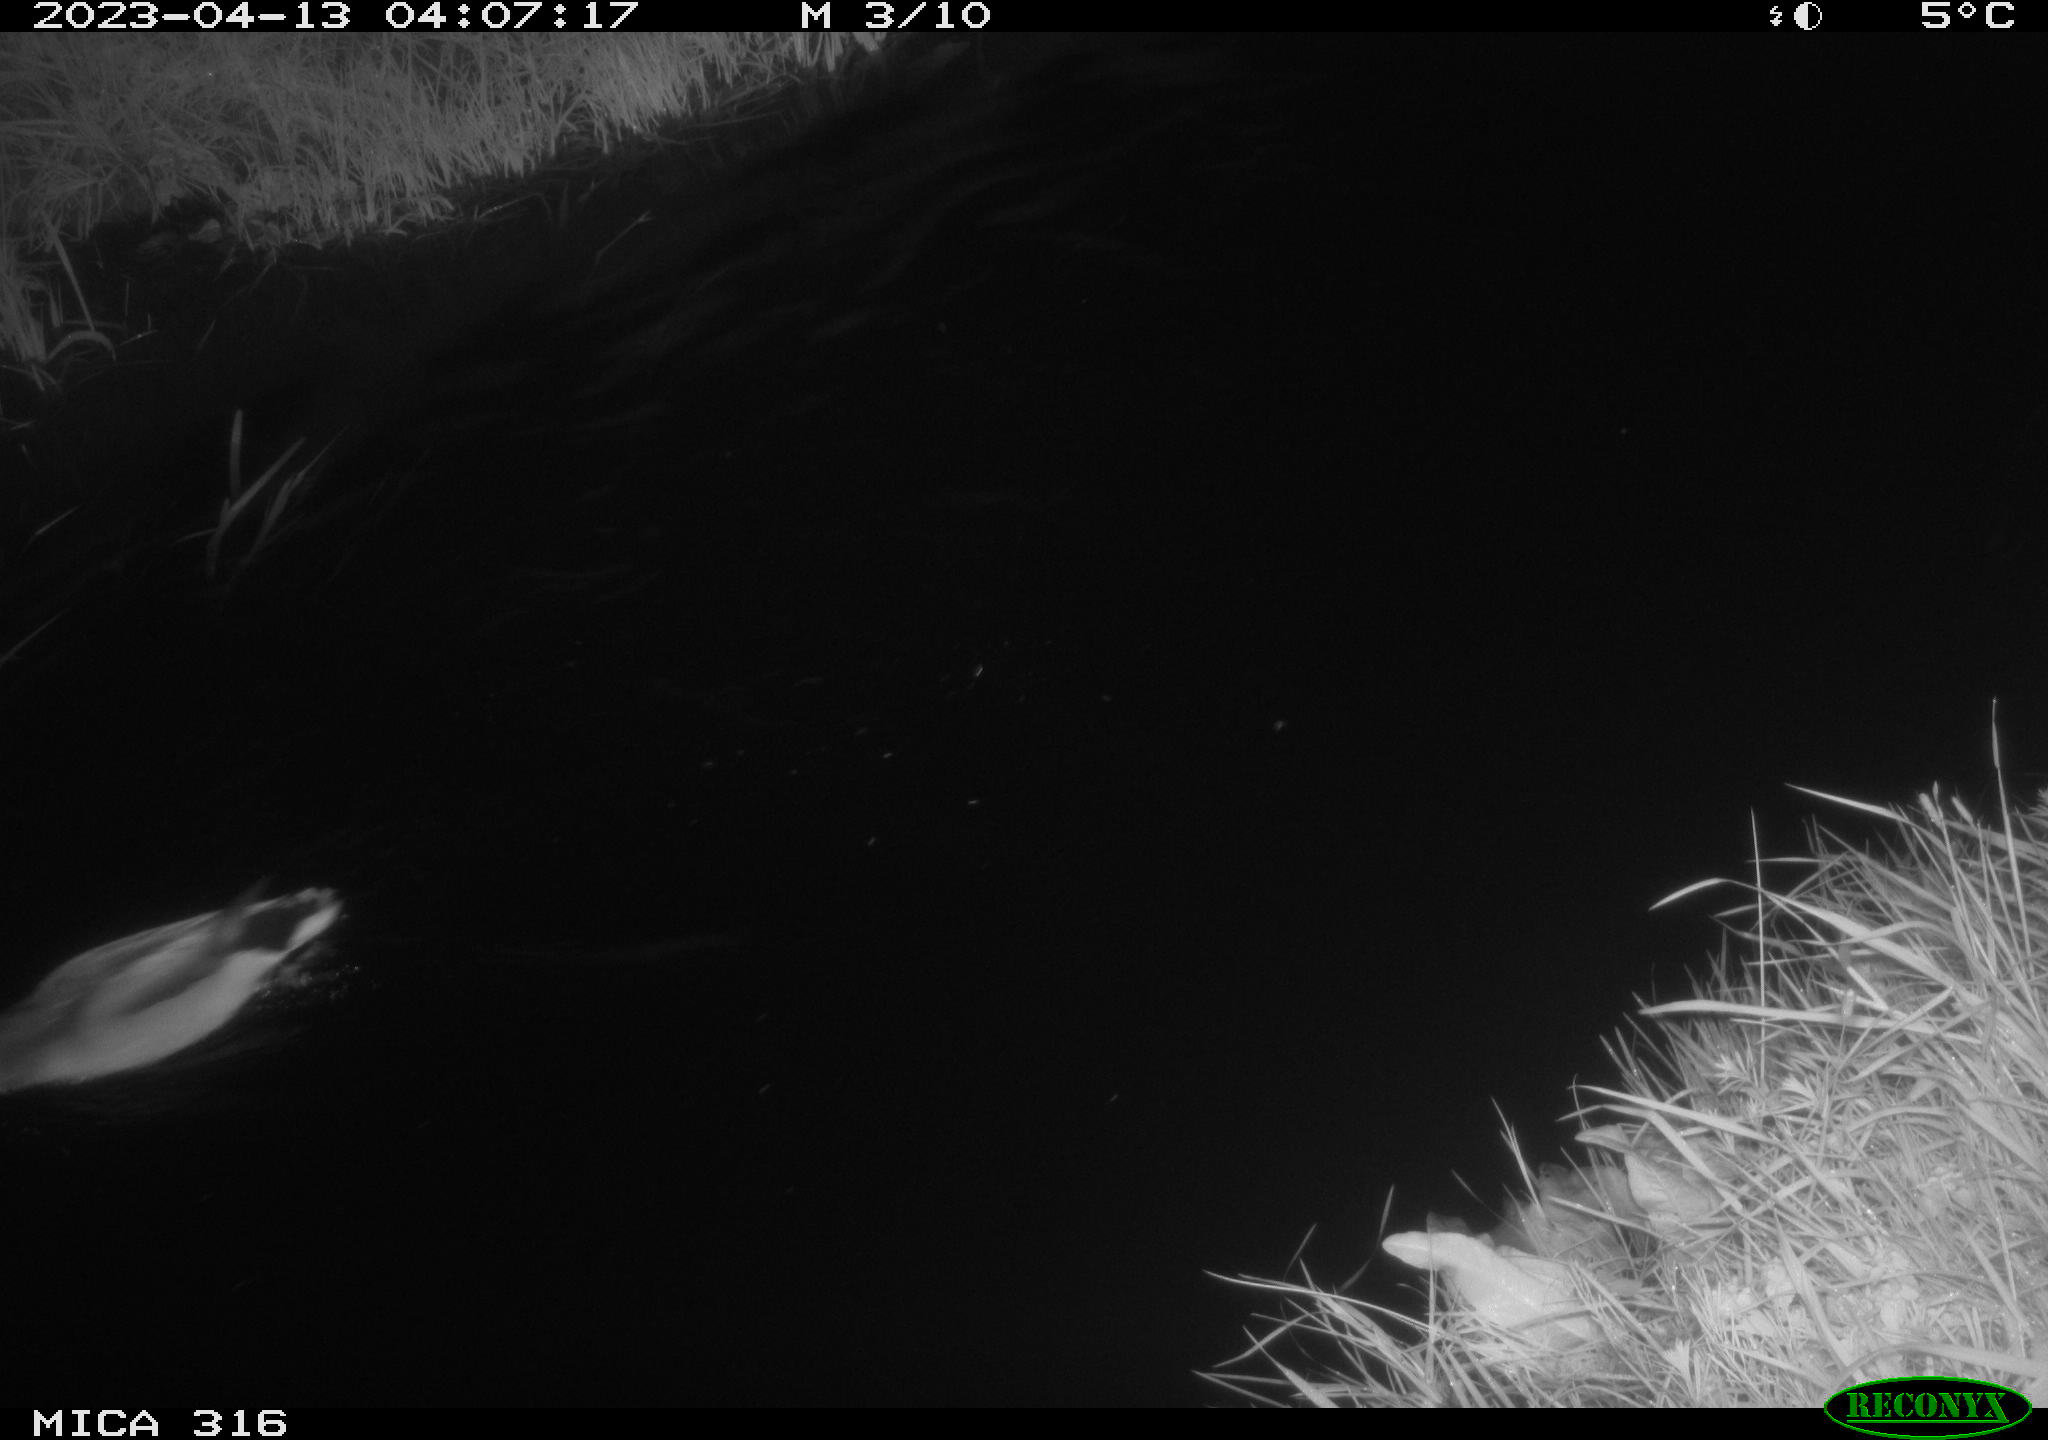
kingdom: Animalia
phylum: Chordata
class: Aves
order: Anseriformes
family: Anatidae
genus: Anas
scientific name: Anas
